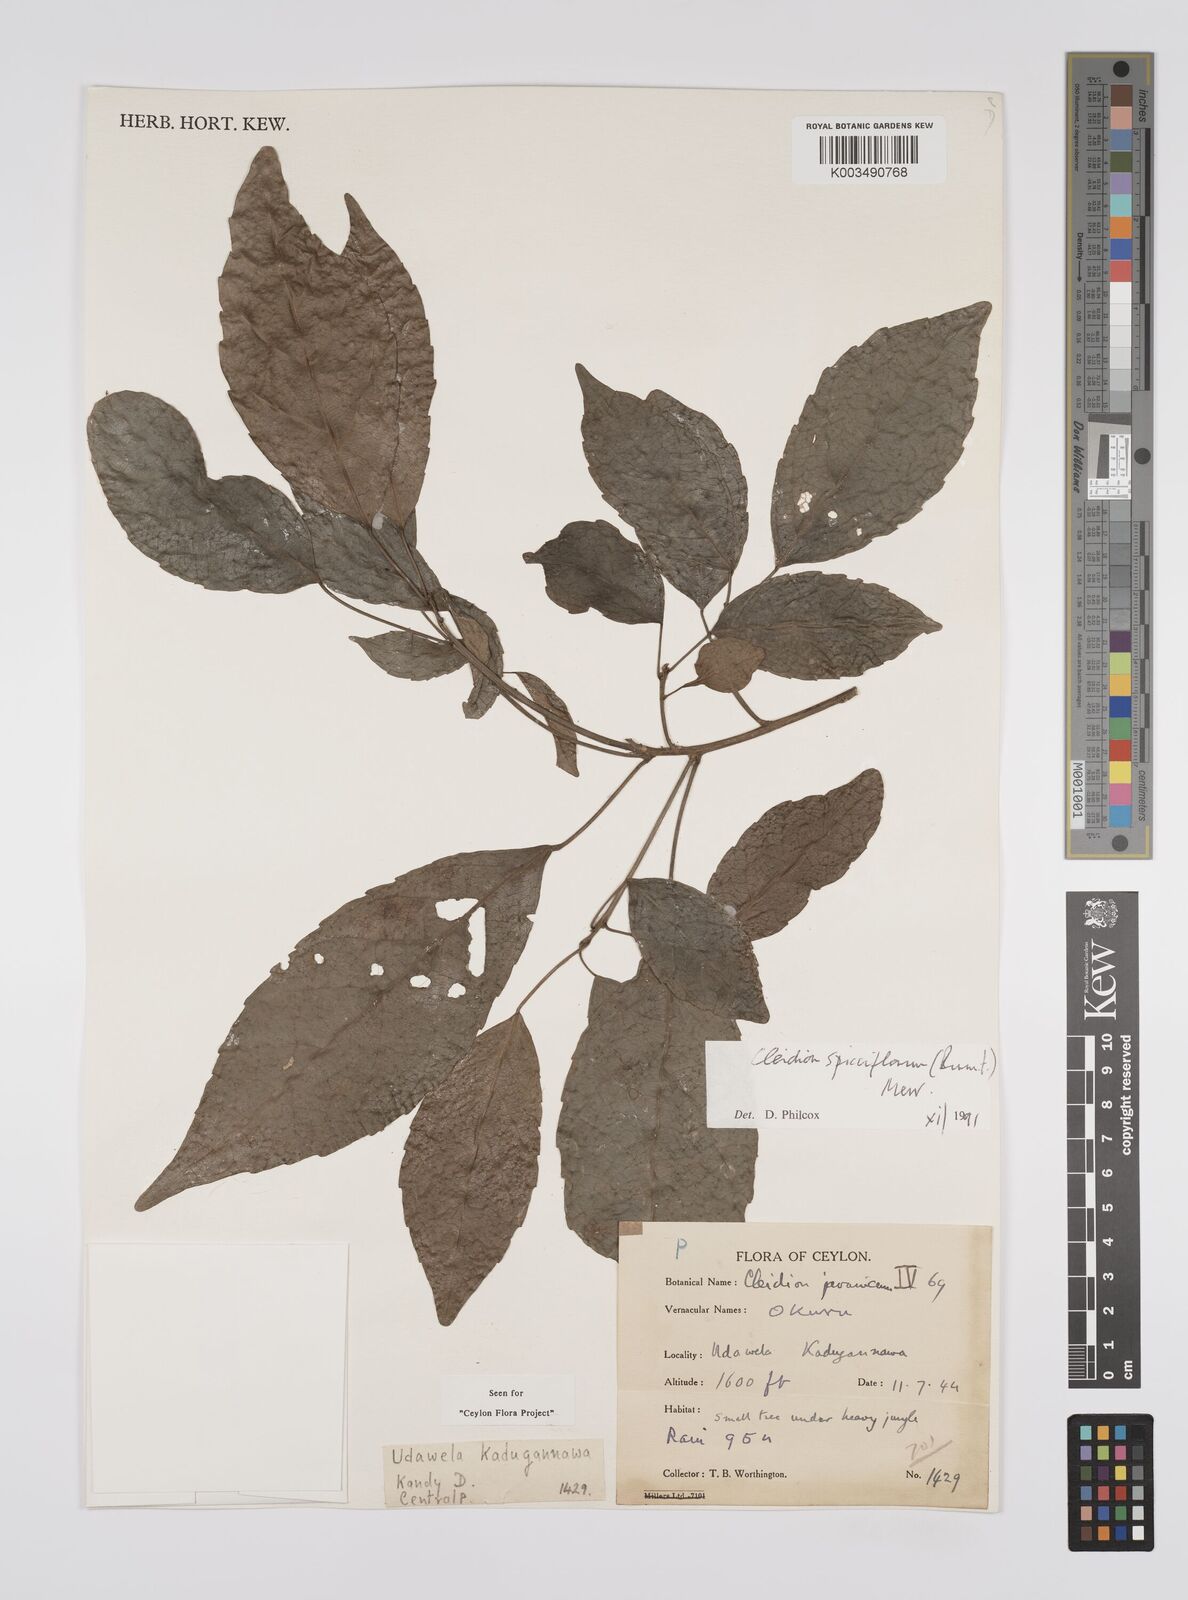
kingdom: Plantae
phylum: Tracheophyta
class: Magnoliopsida
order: Malpighiales
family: Euphorbiaceae
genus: Acalypha
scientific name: Acalypha spiciflora
